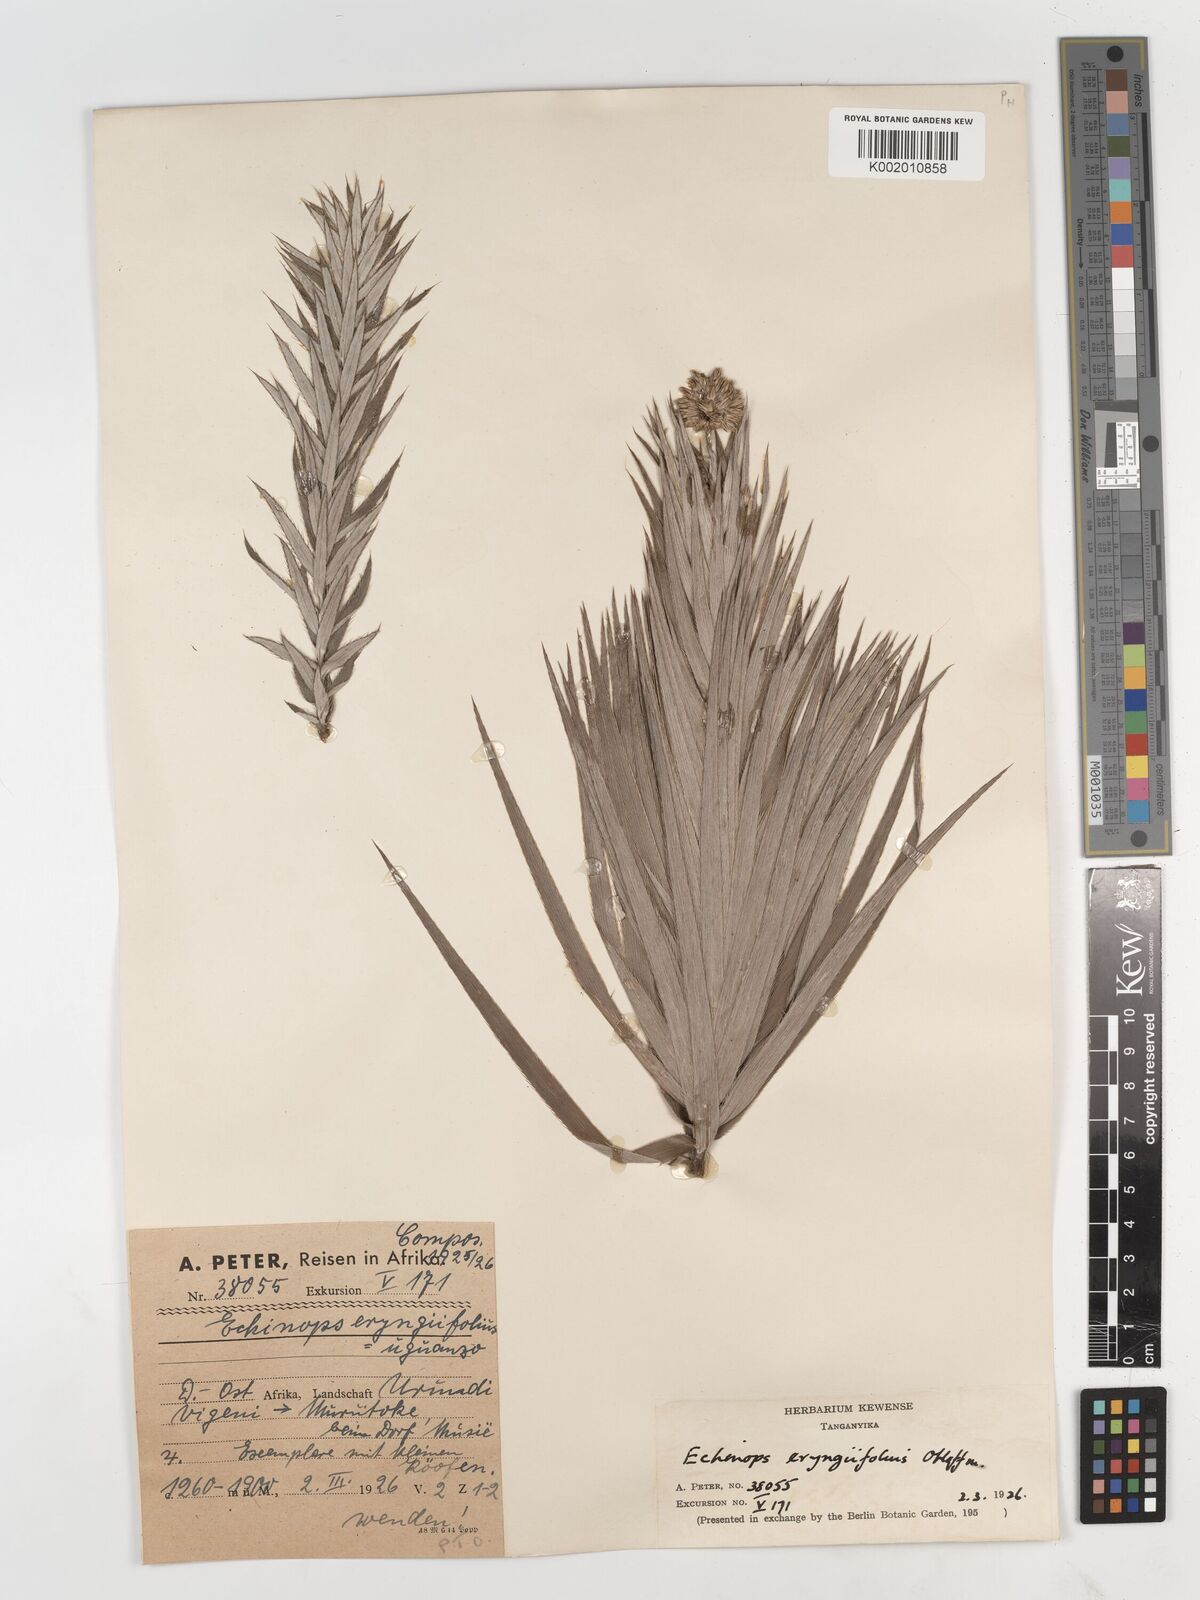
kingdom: Plantae
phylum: Tracheophyta
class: Magnoliopsida
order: Asterales
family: Asteraceae
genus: Echinops
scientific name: Echinops eryngiifolius
